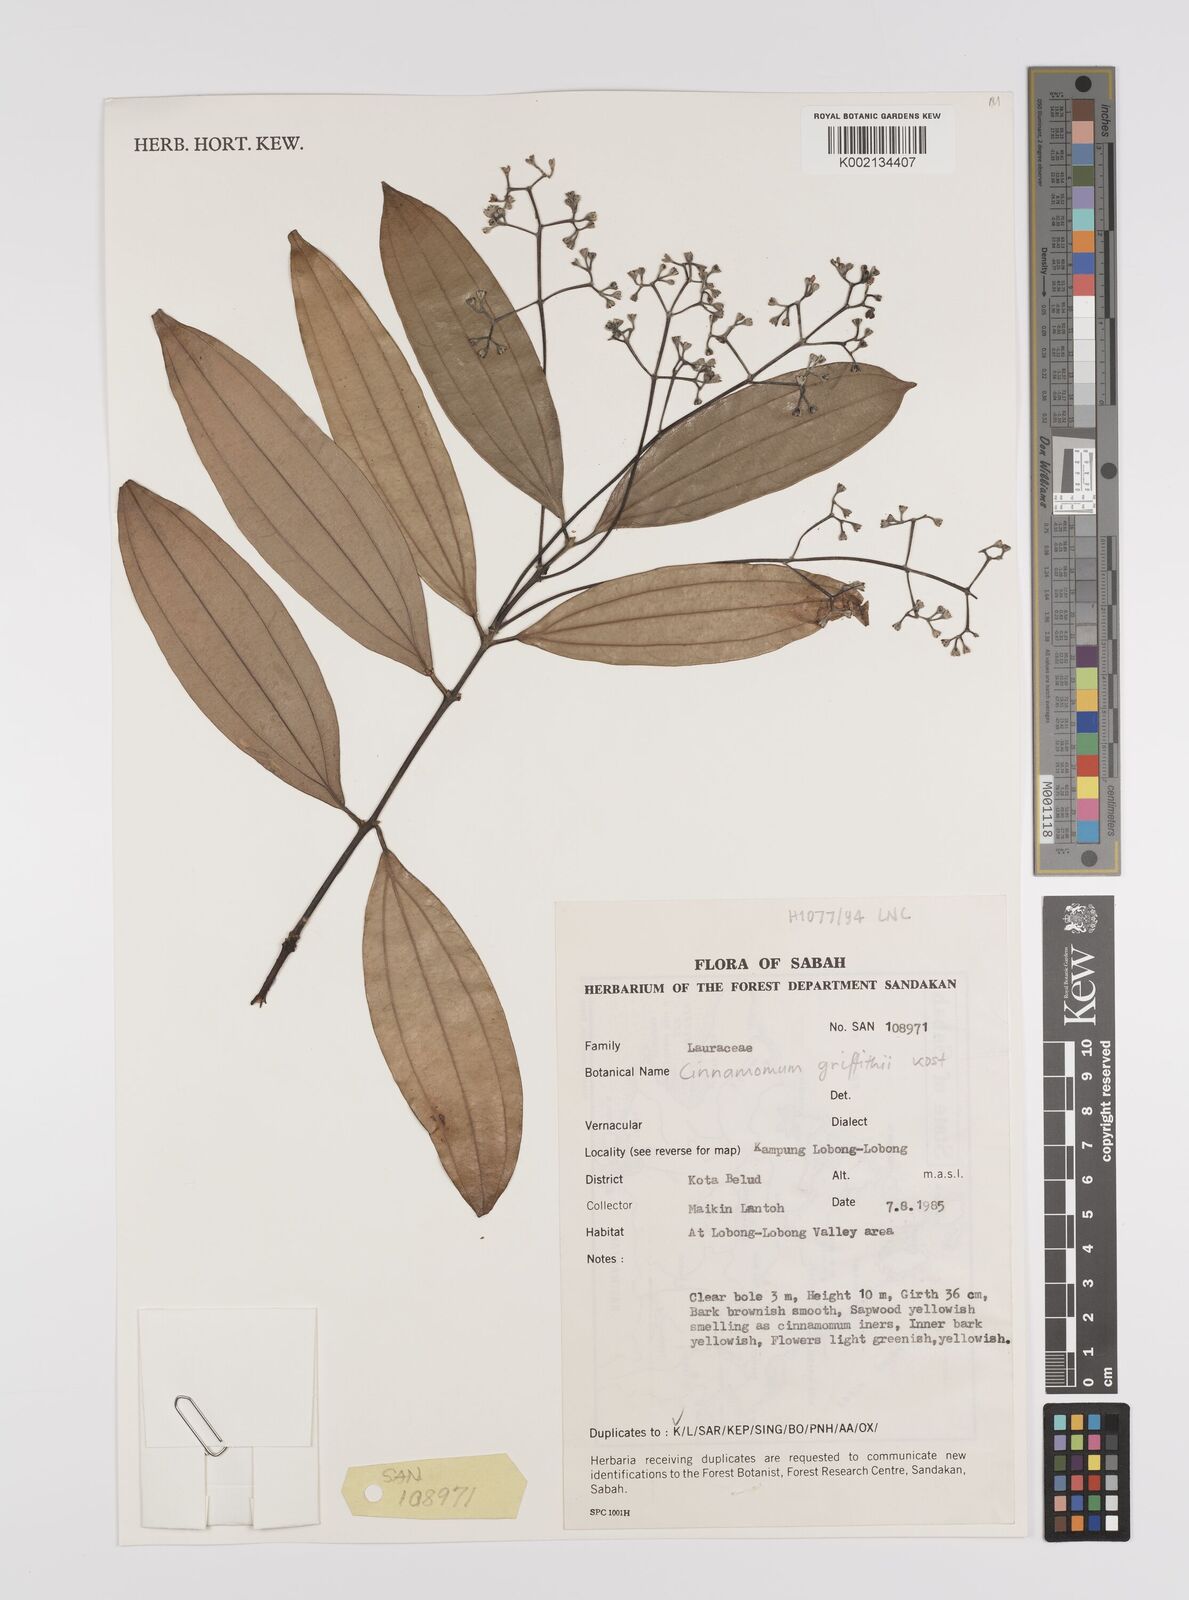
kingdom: Plantae
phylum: Tracheophyta
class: Magnoliopsida
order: Laurales
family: Lauraceae
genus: Cinnamomum
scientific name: Cinnamomum iners
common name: Wild cinnamon
